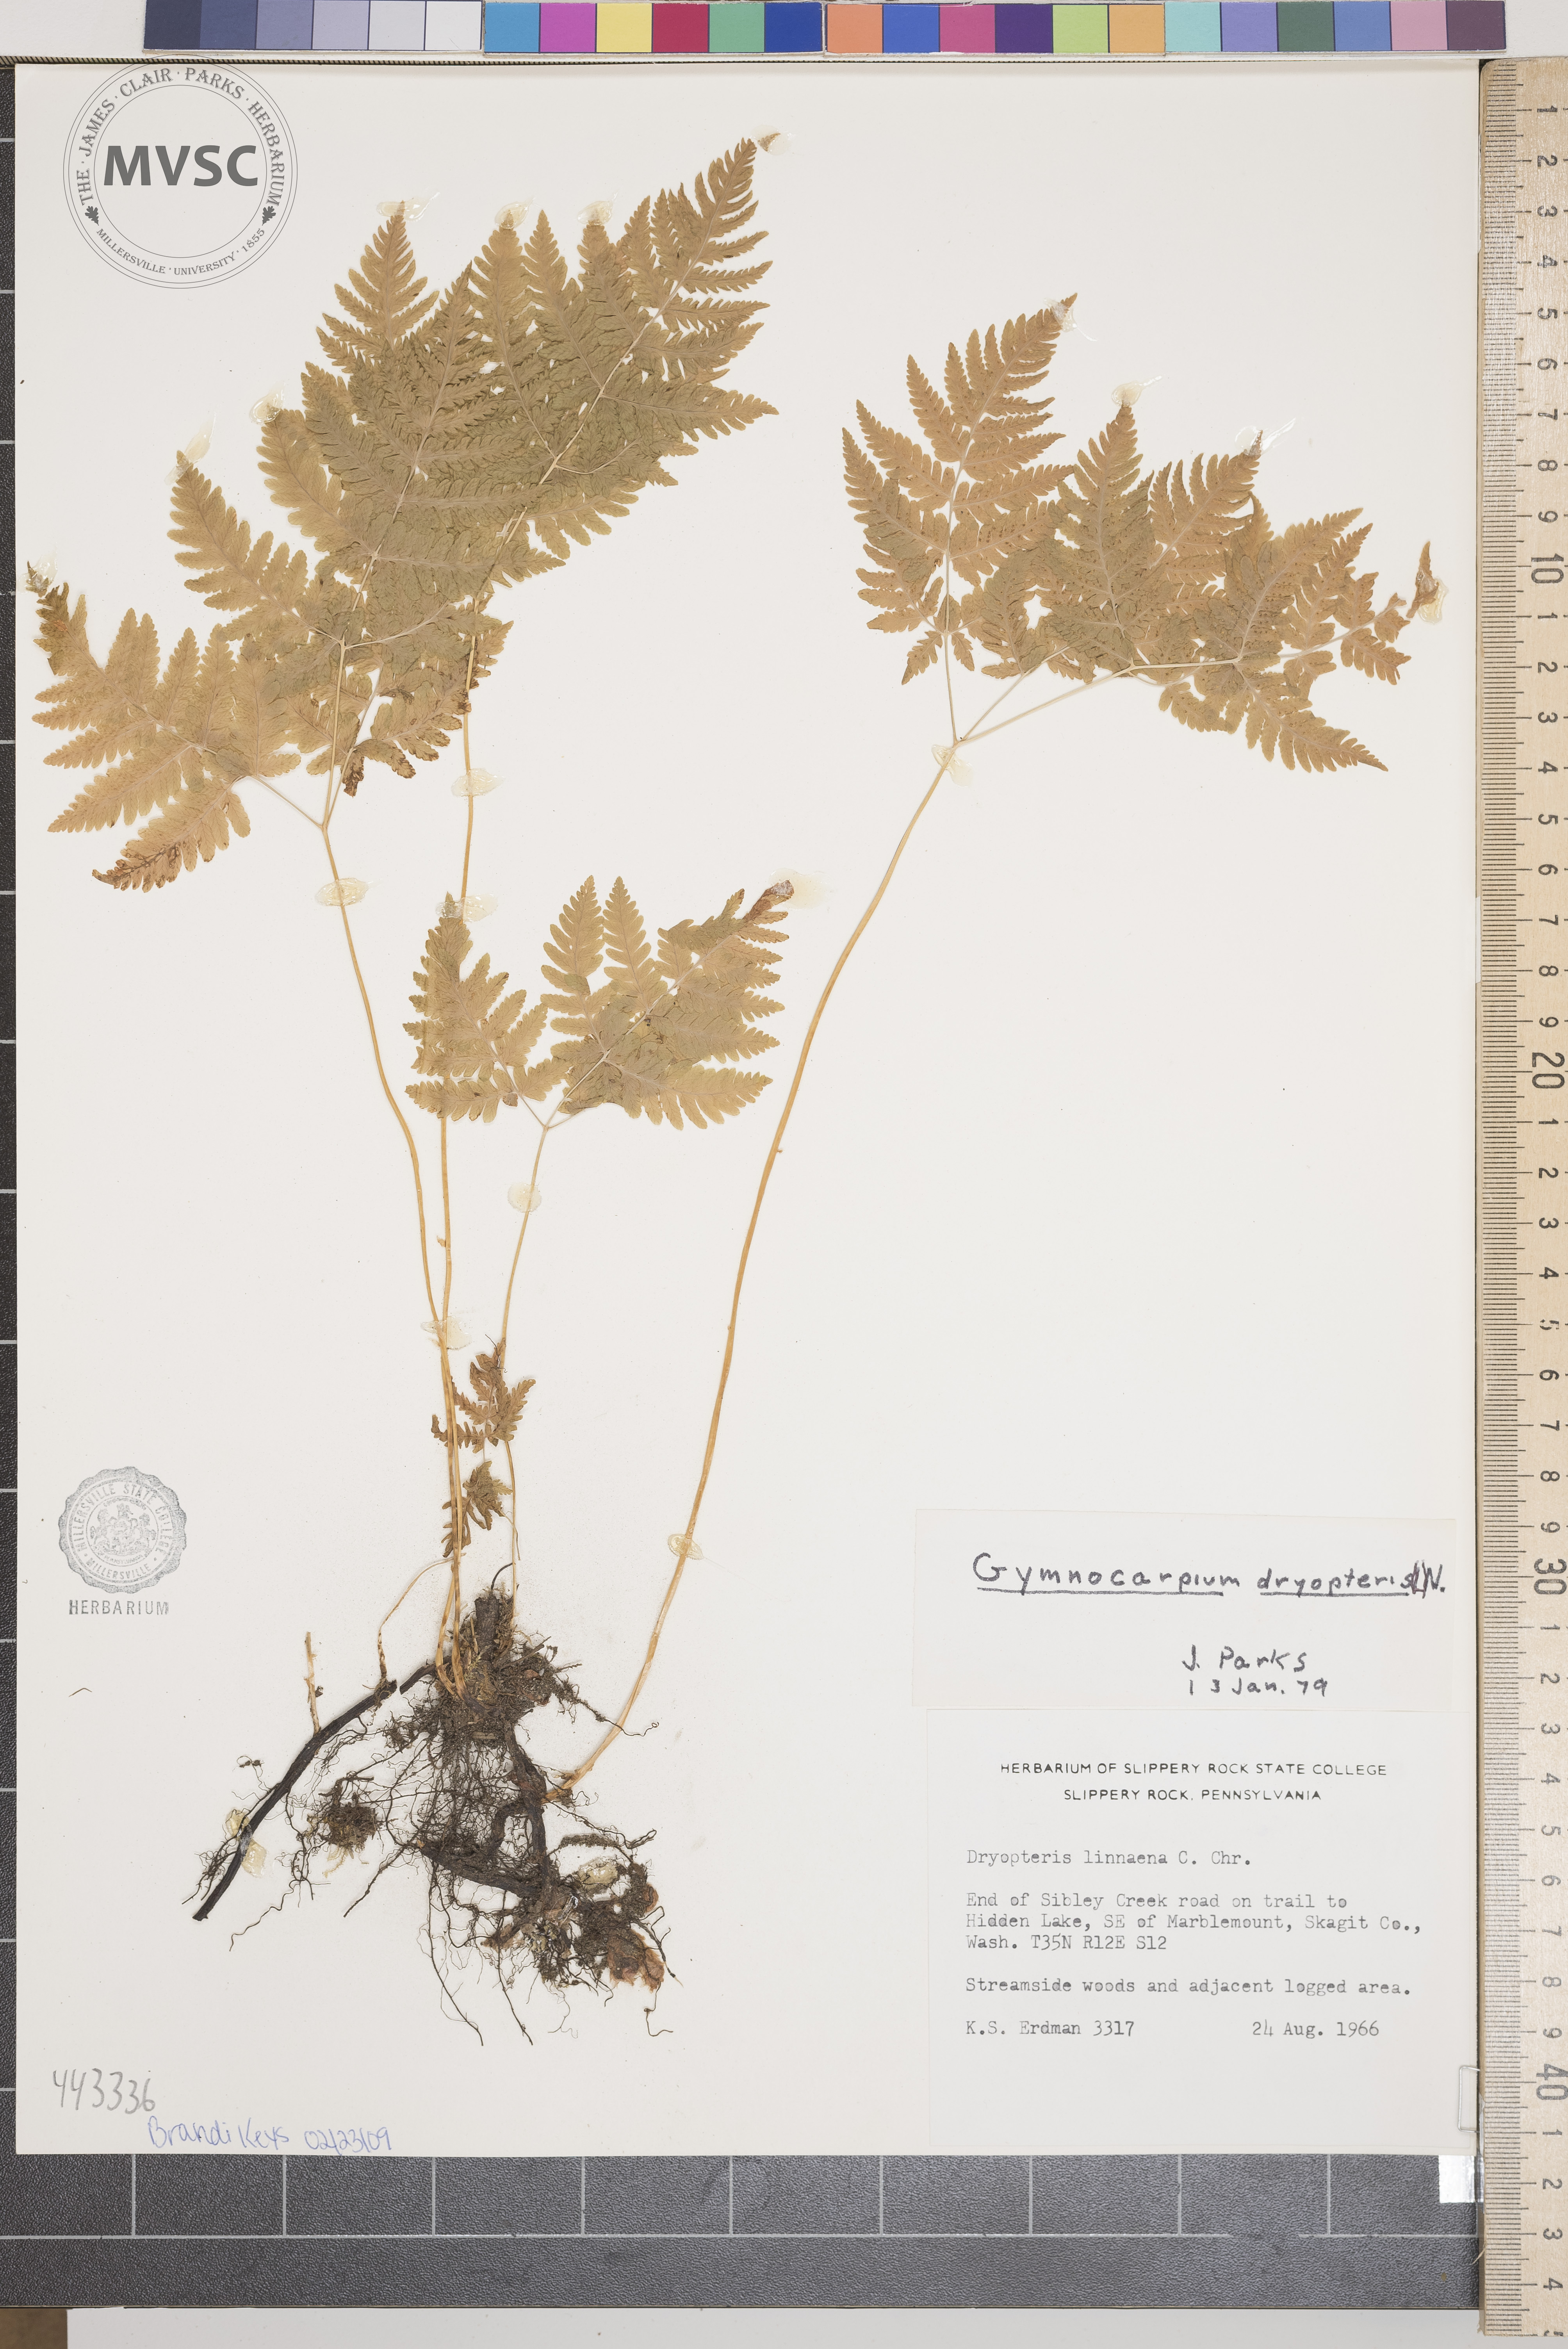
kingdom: Plantae
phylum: Tracheophyta
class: Polypodiopsida
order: Polypodiales
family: Cystopteridaceae
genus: Gymnocarpium
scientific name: Gymnocarpium
